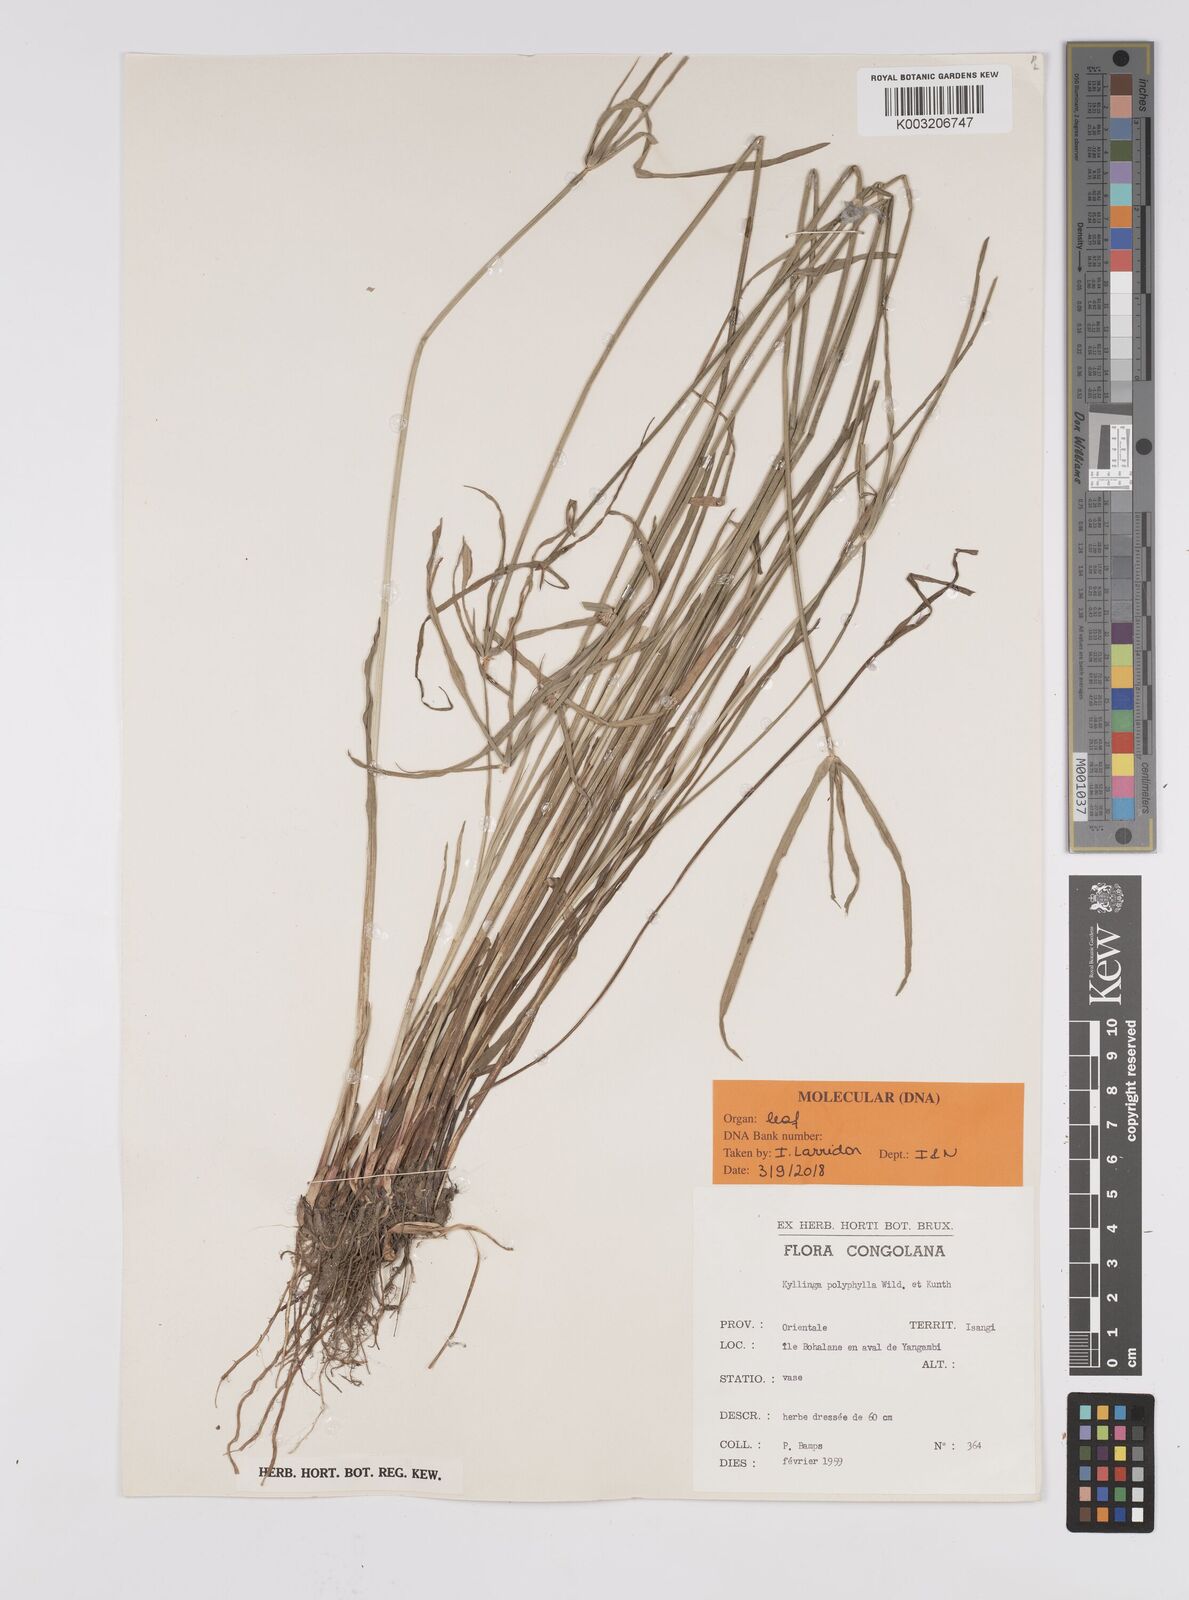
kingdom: Plantae
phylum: Tracheophyta
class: Liliopsida
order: Poales
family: Cyperaceae
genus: Cyperus
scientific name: Cyperus
